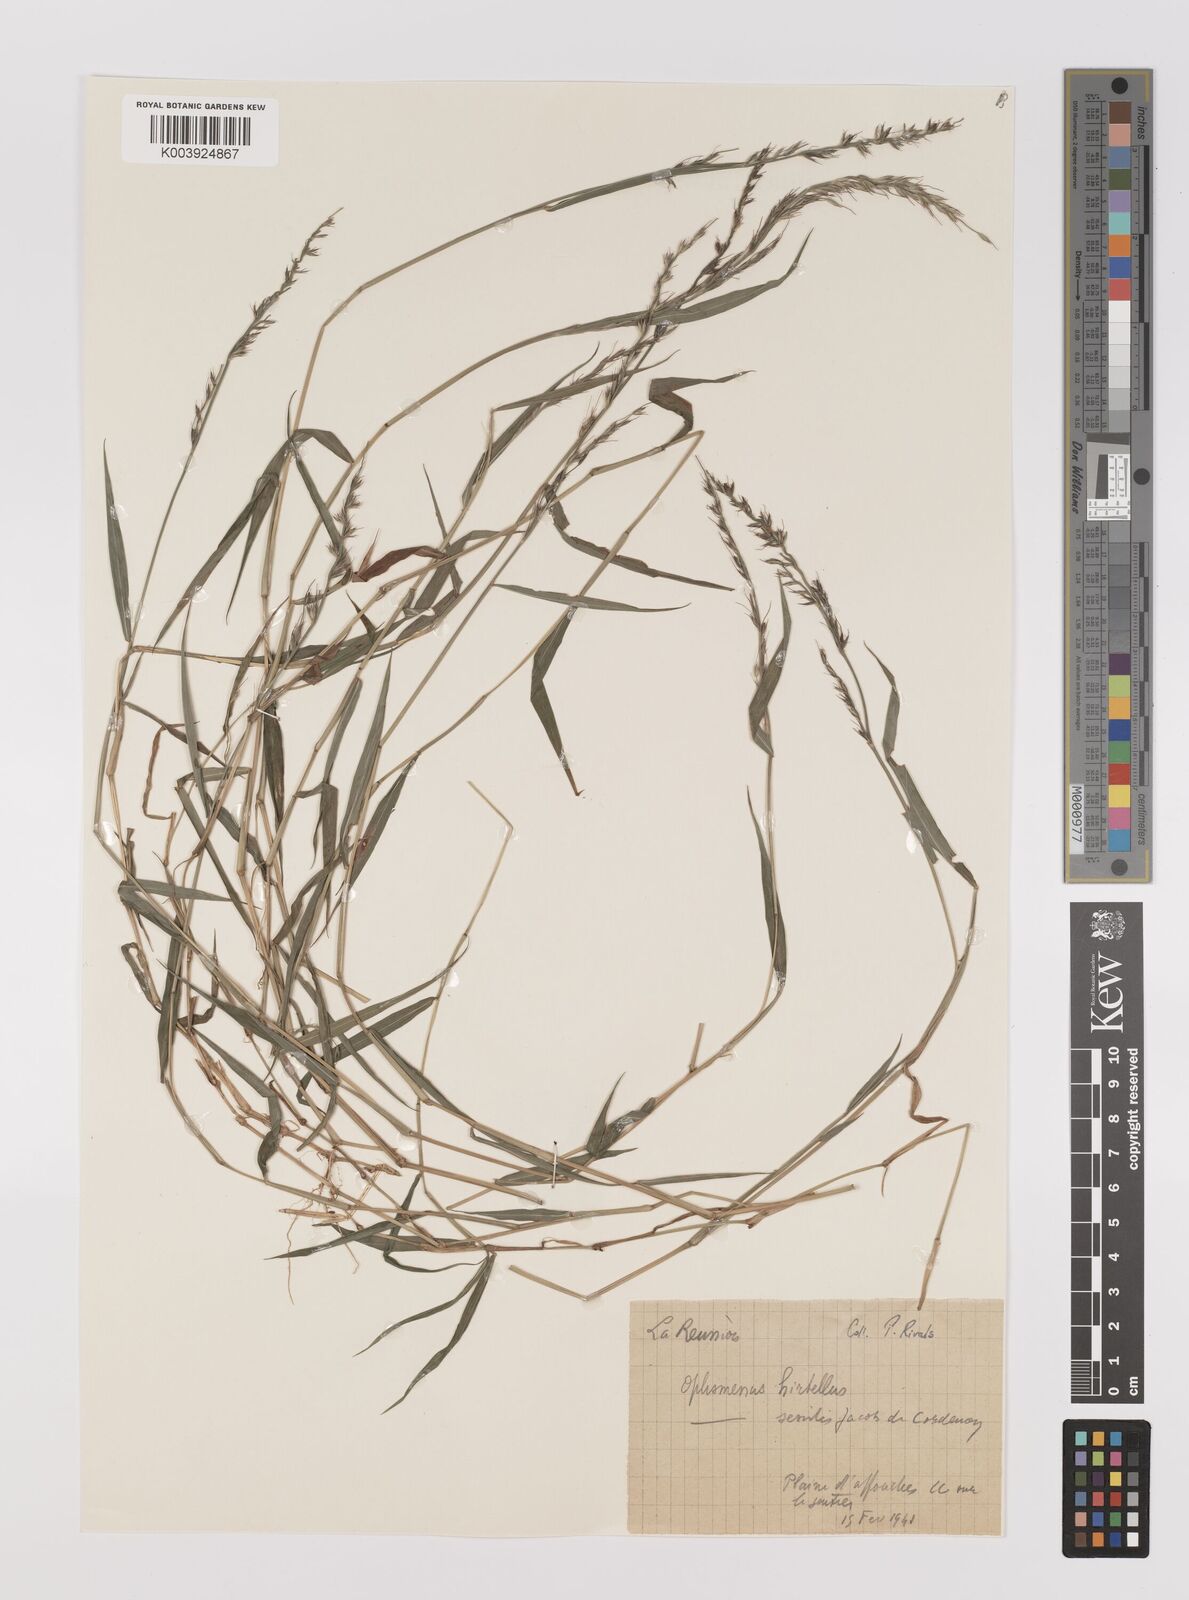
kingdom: Plantae
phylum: Tracheophyta
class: Liliopsida
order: Poales
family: Poaceae
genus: Oplismenus
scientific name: Oplismenus compositus
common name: Running mountain grass
